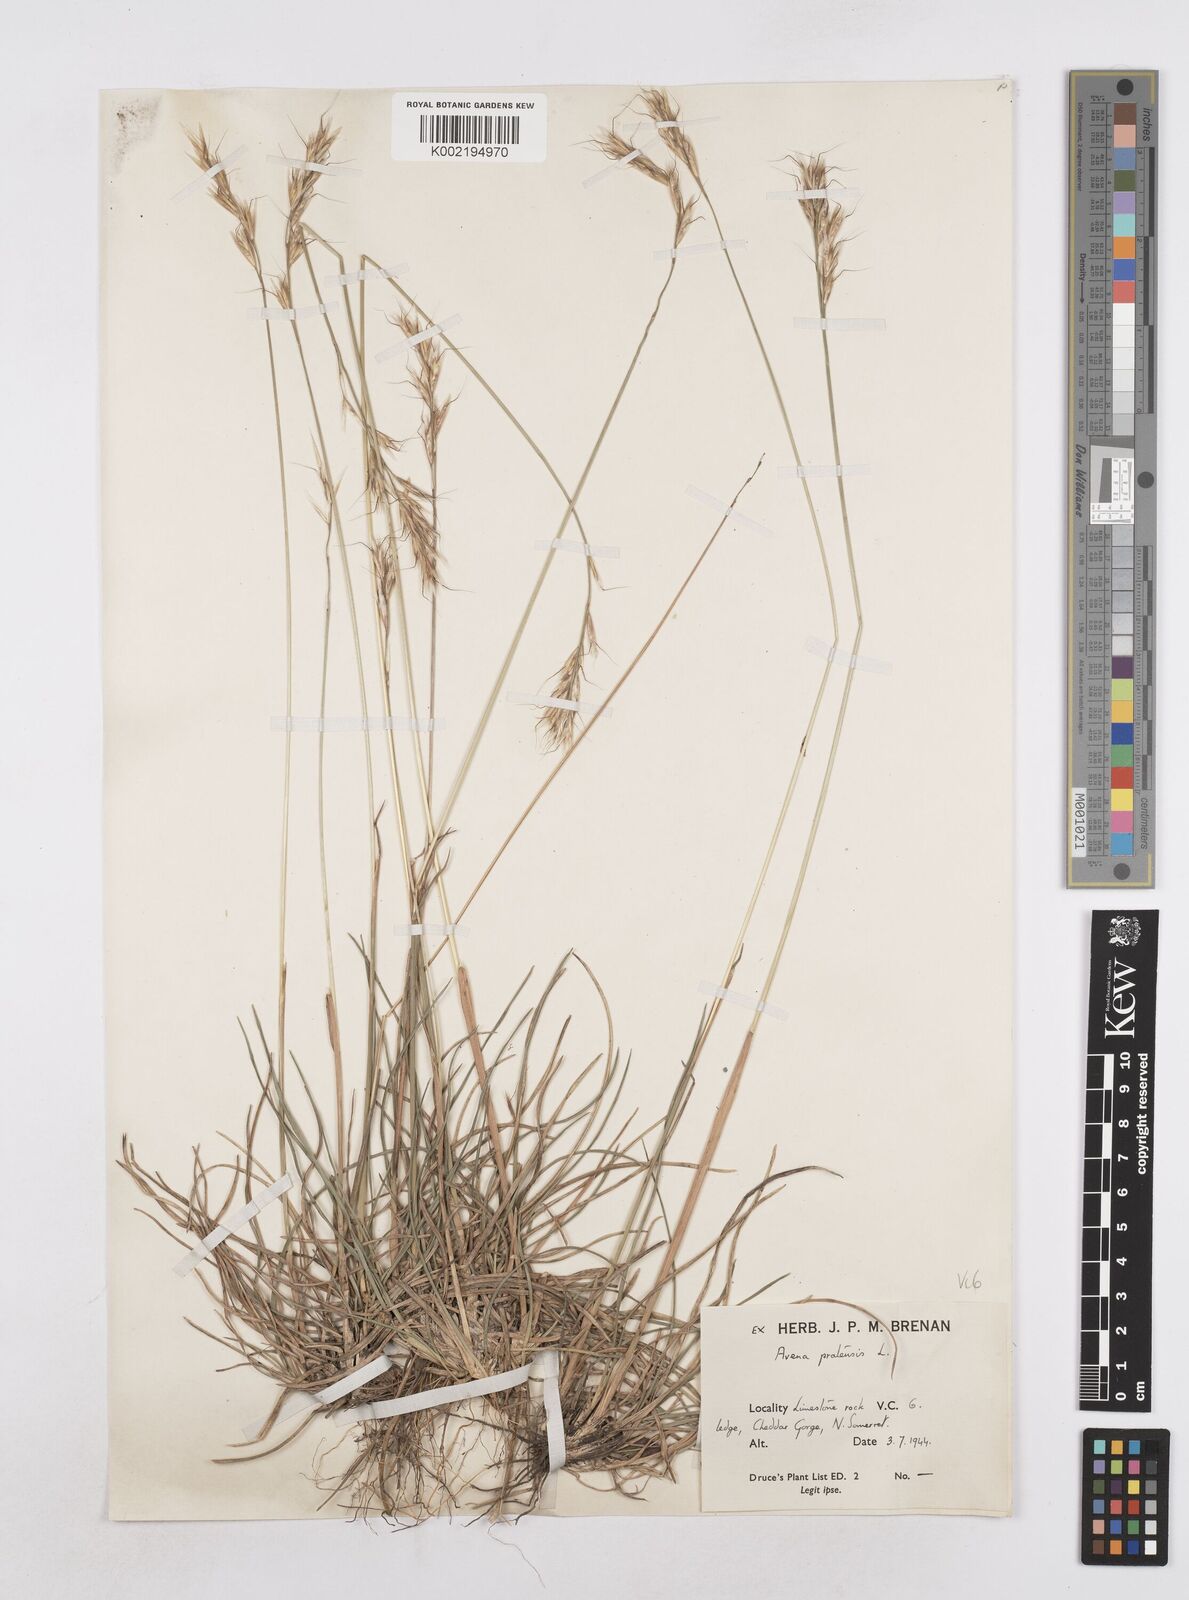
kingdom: Plantae
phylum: Tracheophyta
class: Liliopsida
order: Poales
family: Poaceae
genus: Helictochloa
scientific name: Helictochloa pratensis
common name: Meadow oat grass
